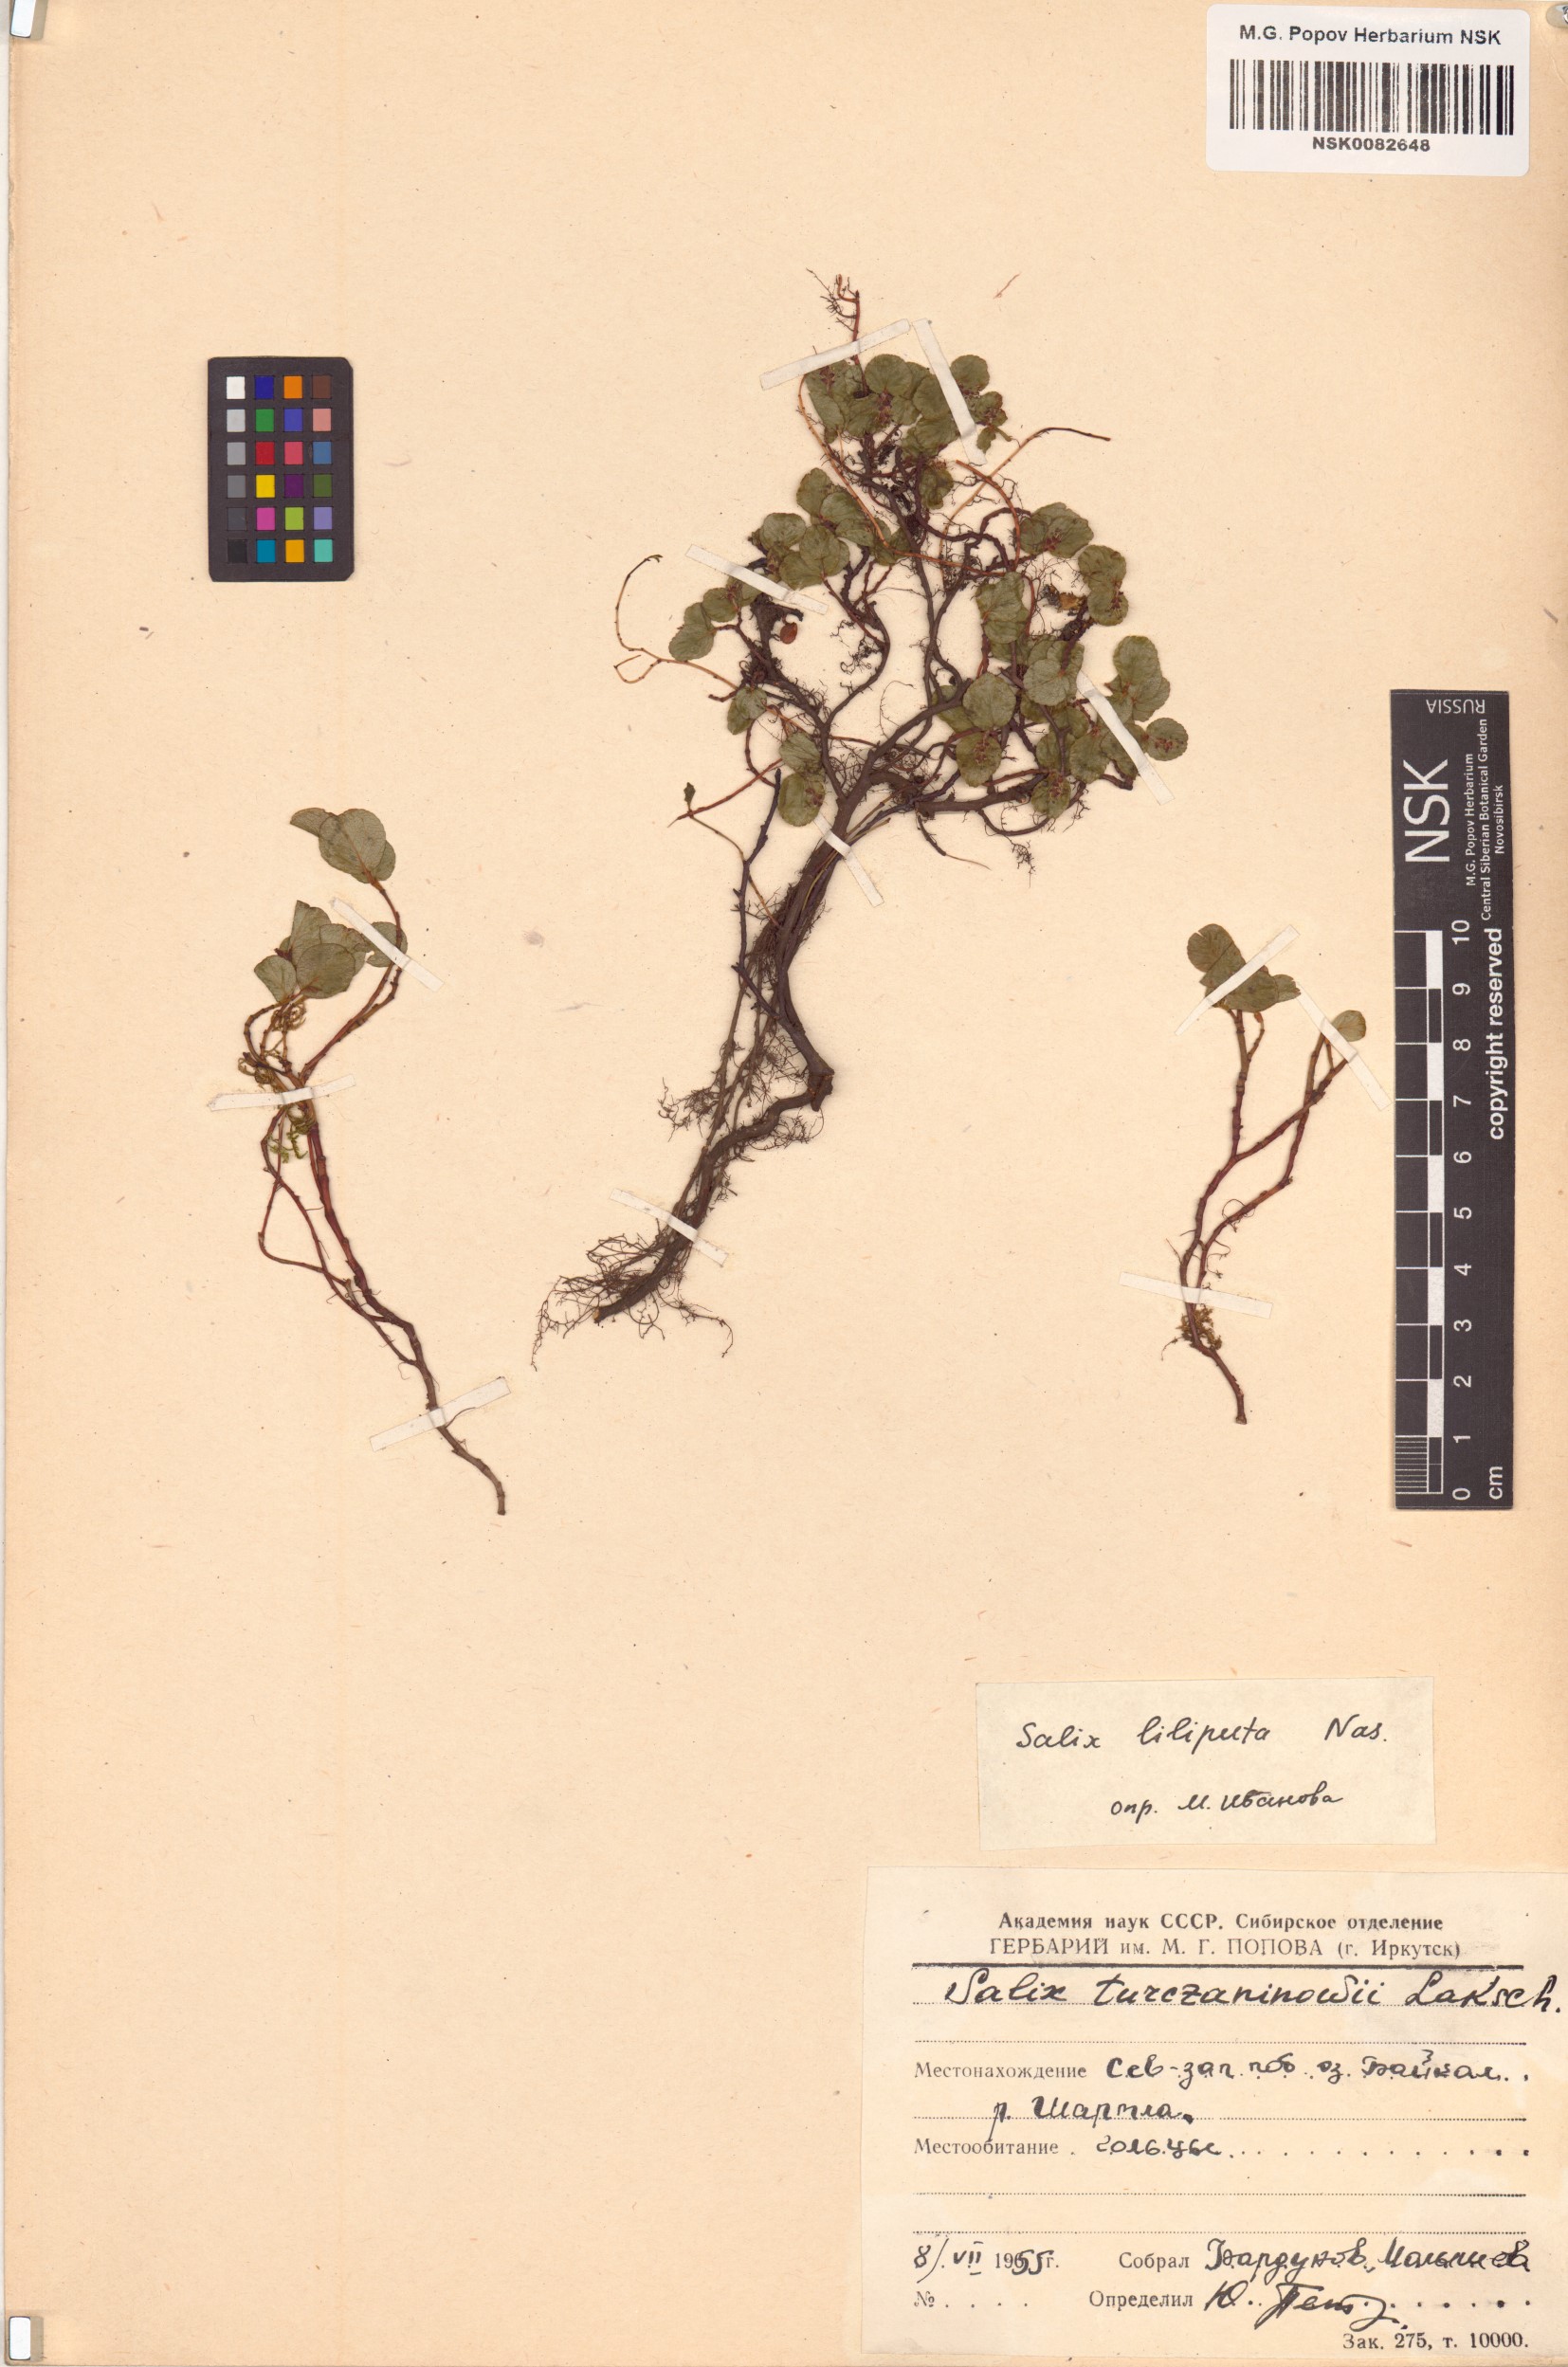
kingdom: Plantae
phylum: Tracheophyta
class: Magnoliopsida
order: Malpighiales
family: Salicaceae
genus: Salix
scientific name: Salix turczaninowii
